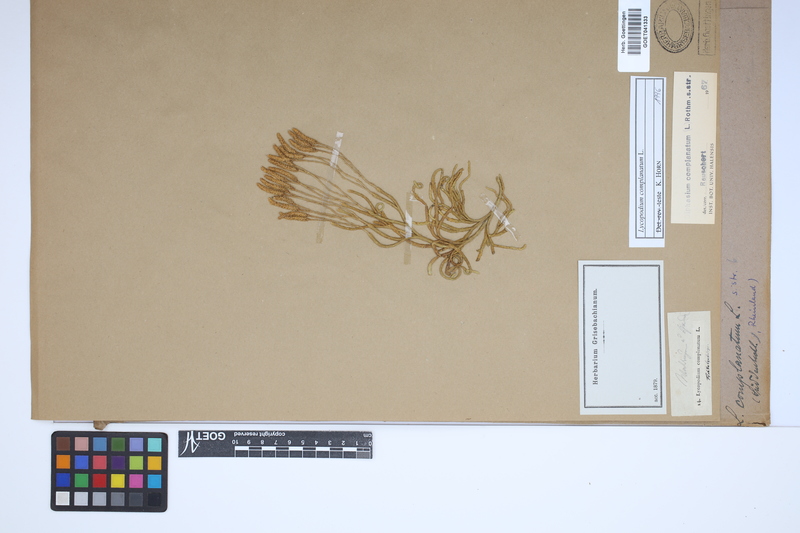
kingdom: Plantae
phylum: Tracheophyta
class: Lycopodiopsida
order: Lycopodiales
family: Lycopodiaceae
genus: Diphasiastrum
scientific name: Diphasiastrum complanatum
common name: Northern running-pine
